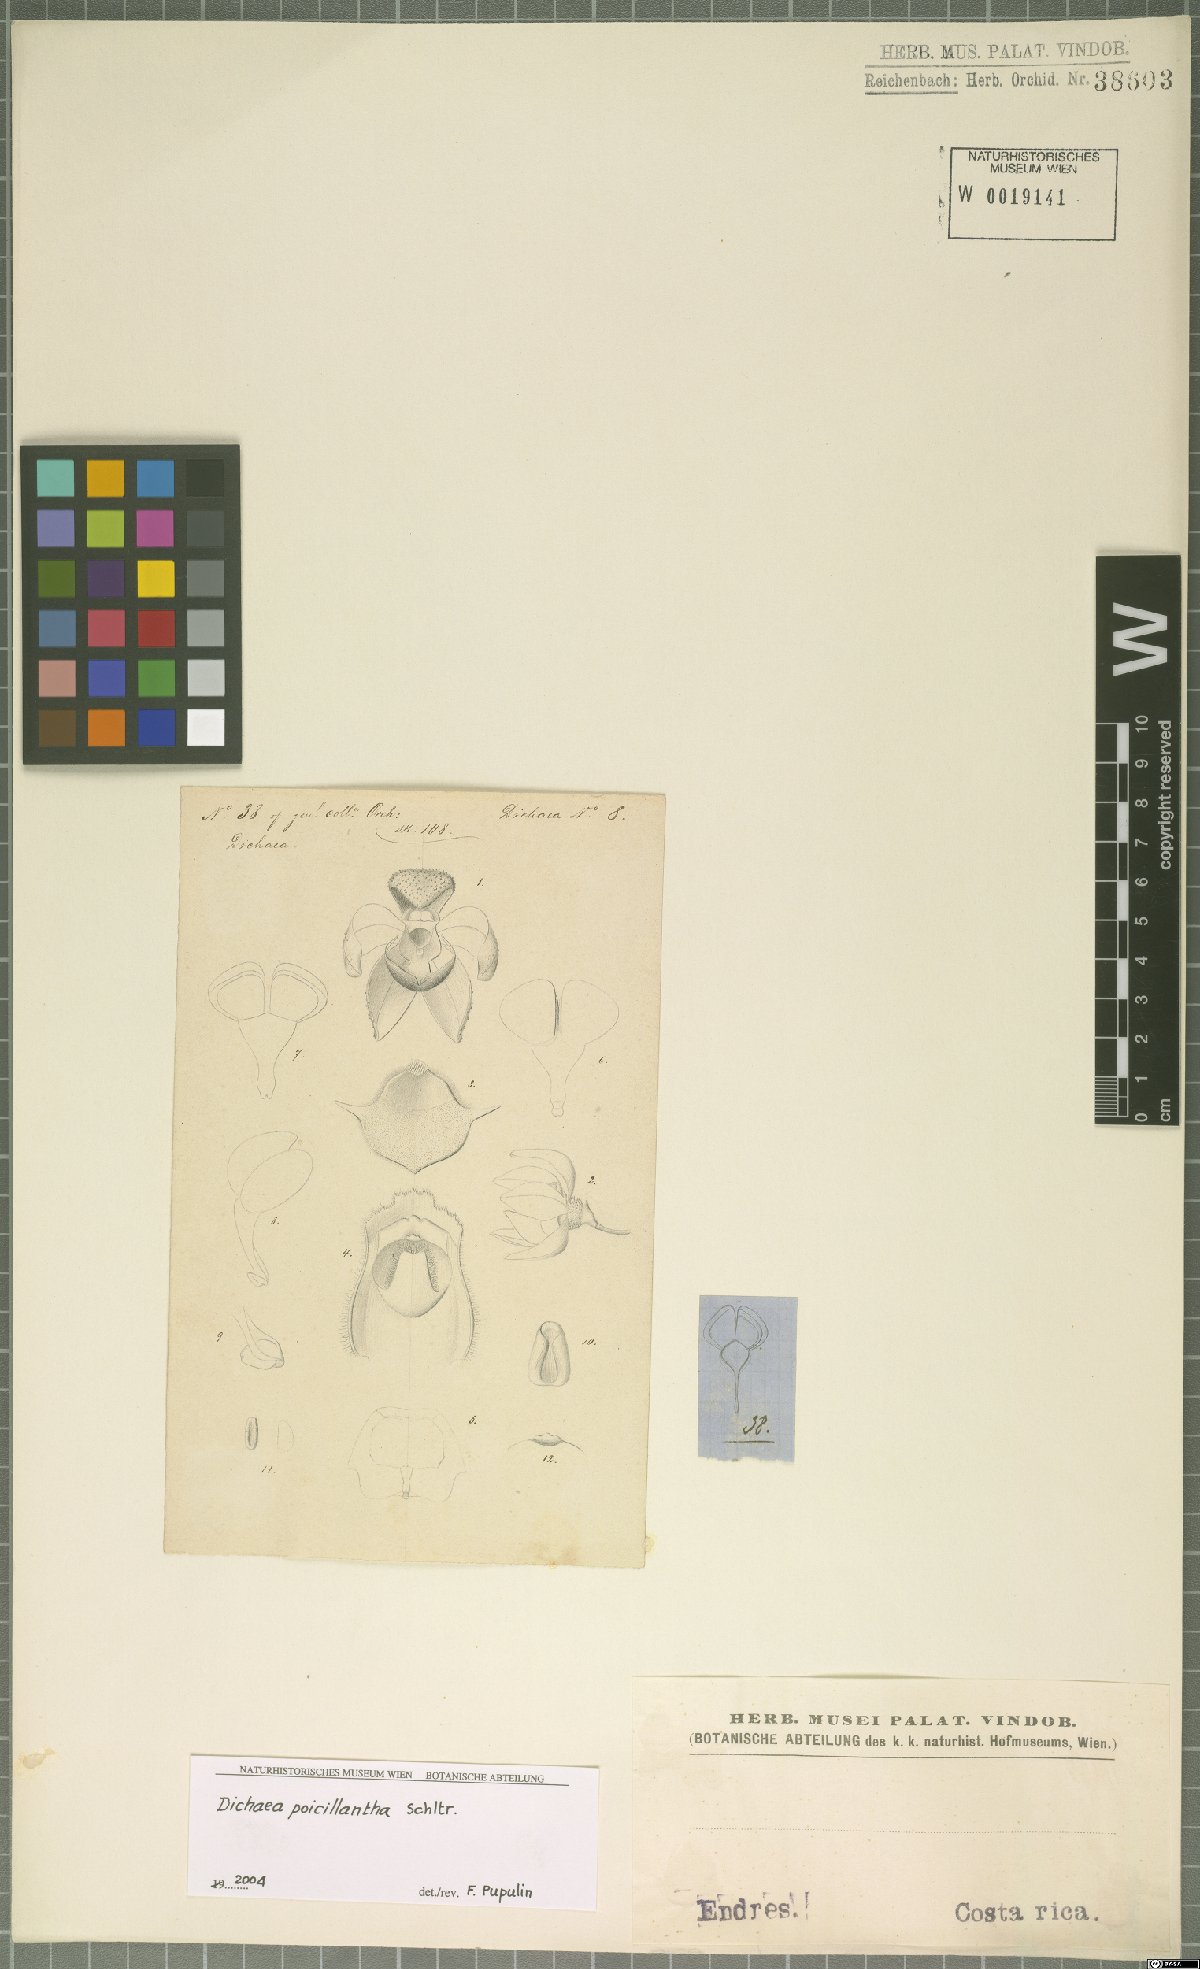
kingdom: Plantae
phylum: Tracheophyta
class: Liliopsida
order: Asparagales
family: Orchidaceae
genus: Dichaea
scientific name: Dichaea poicillantha
